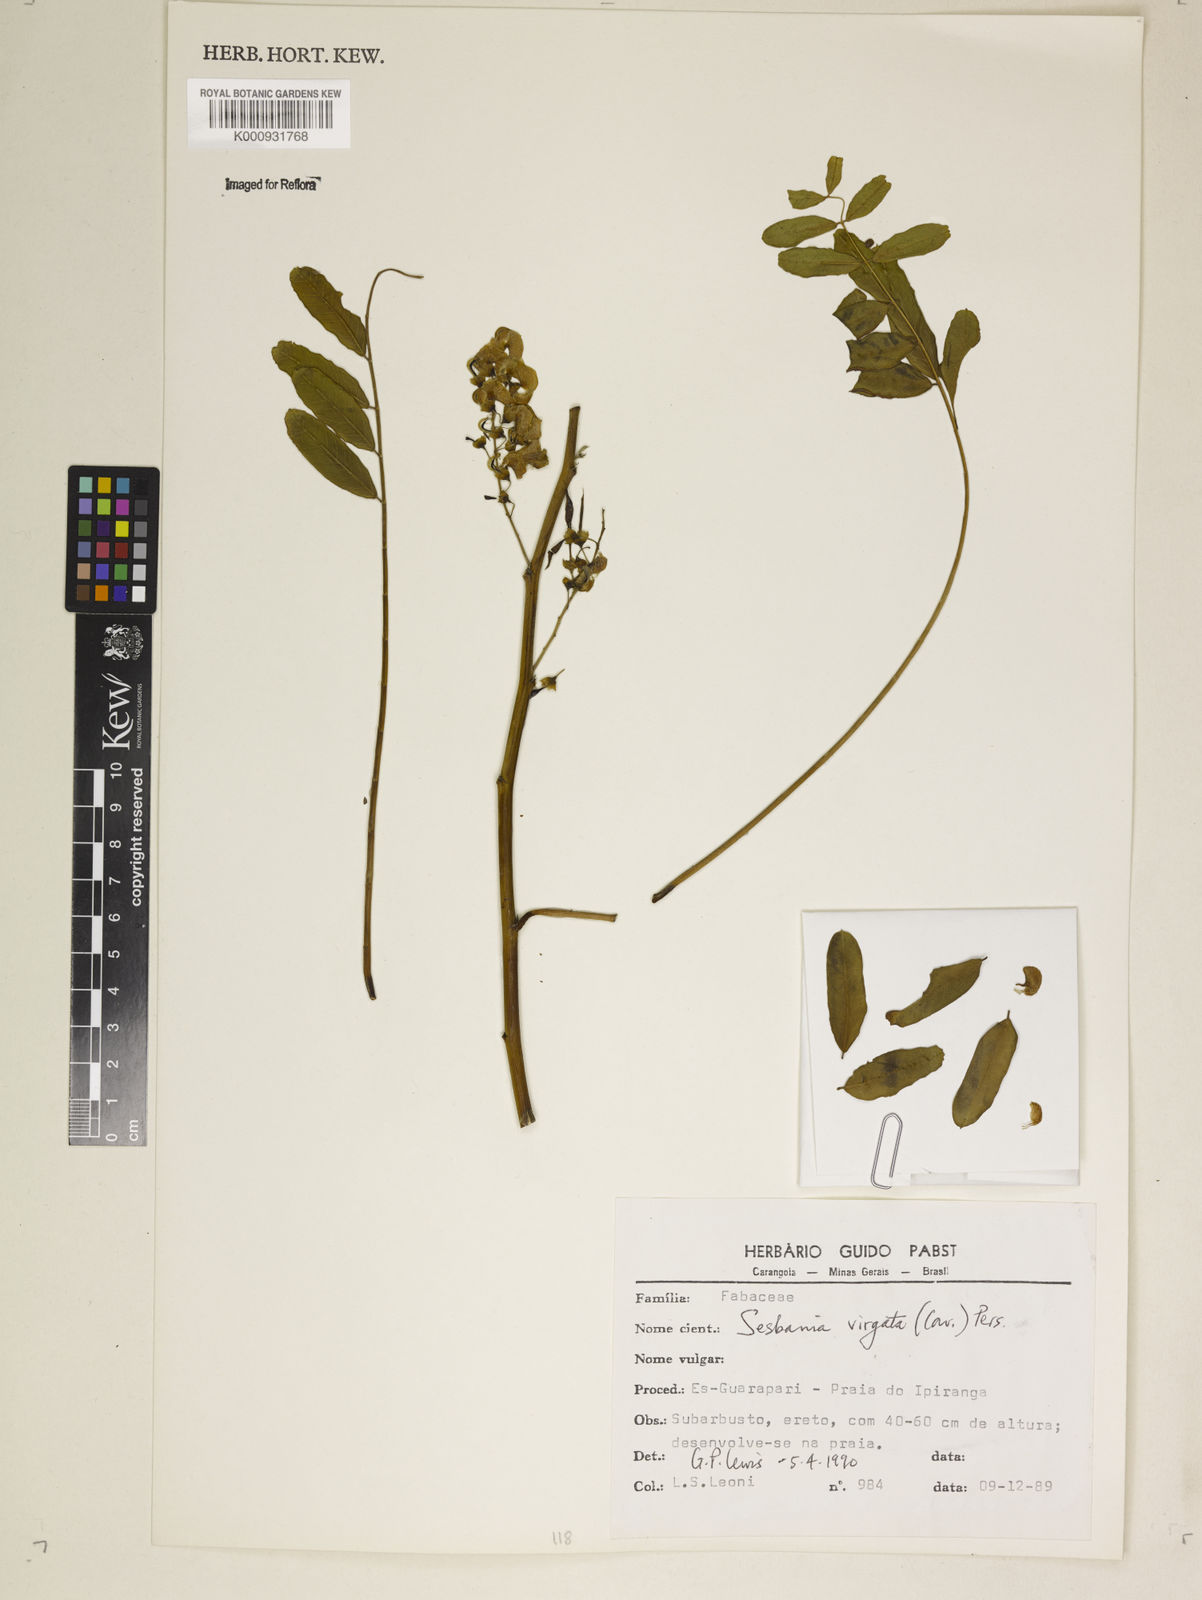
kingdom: Plantae
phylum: Tracheophyta
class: Magnoliopsida
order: Fabales
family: Fabaceae
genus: Sesbania
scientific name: Sesbania
